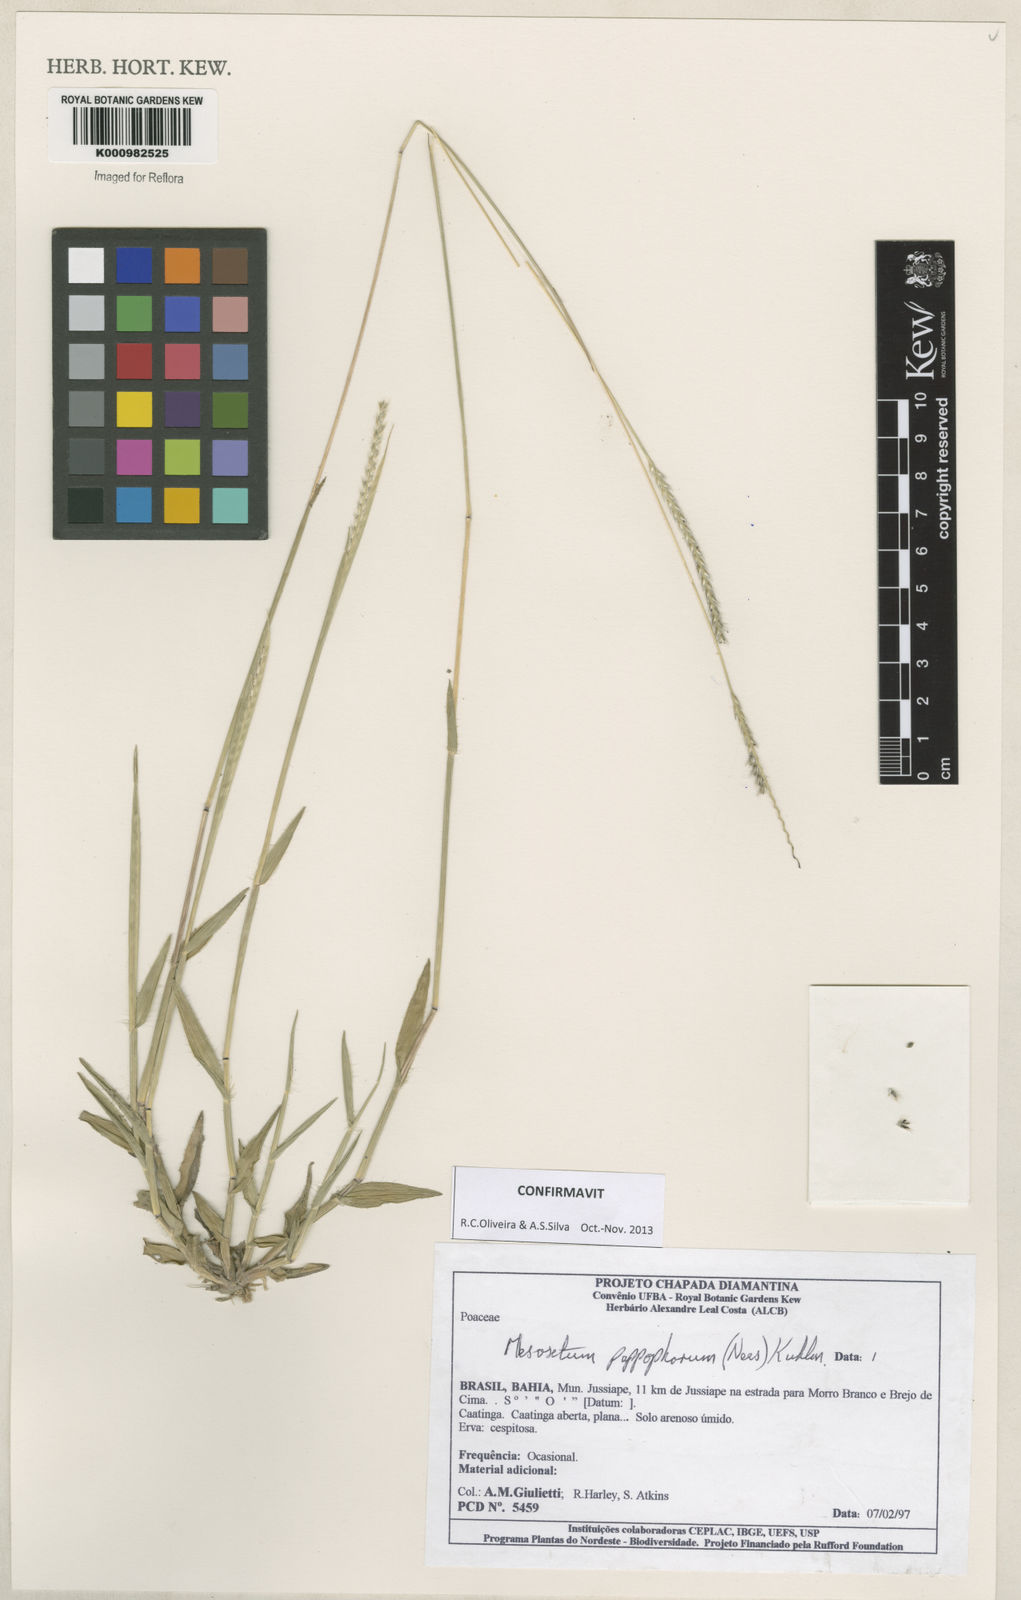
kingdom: Plantae
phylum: Tracheophyta
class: Liliopsida
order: Poales
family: Poaceae
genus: Mesosetum
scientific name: Mesosetum pappophorum
